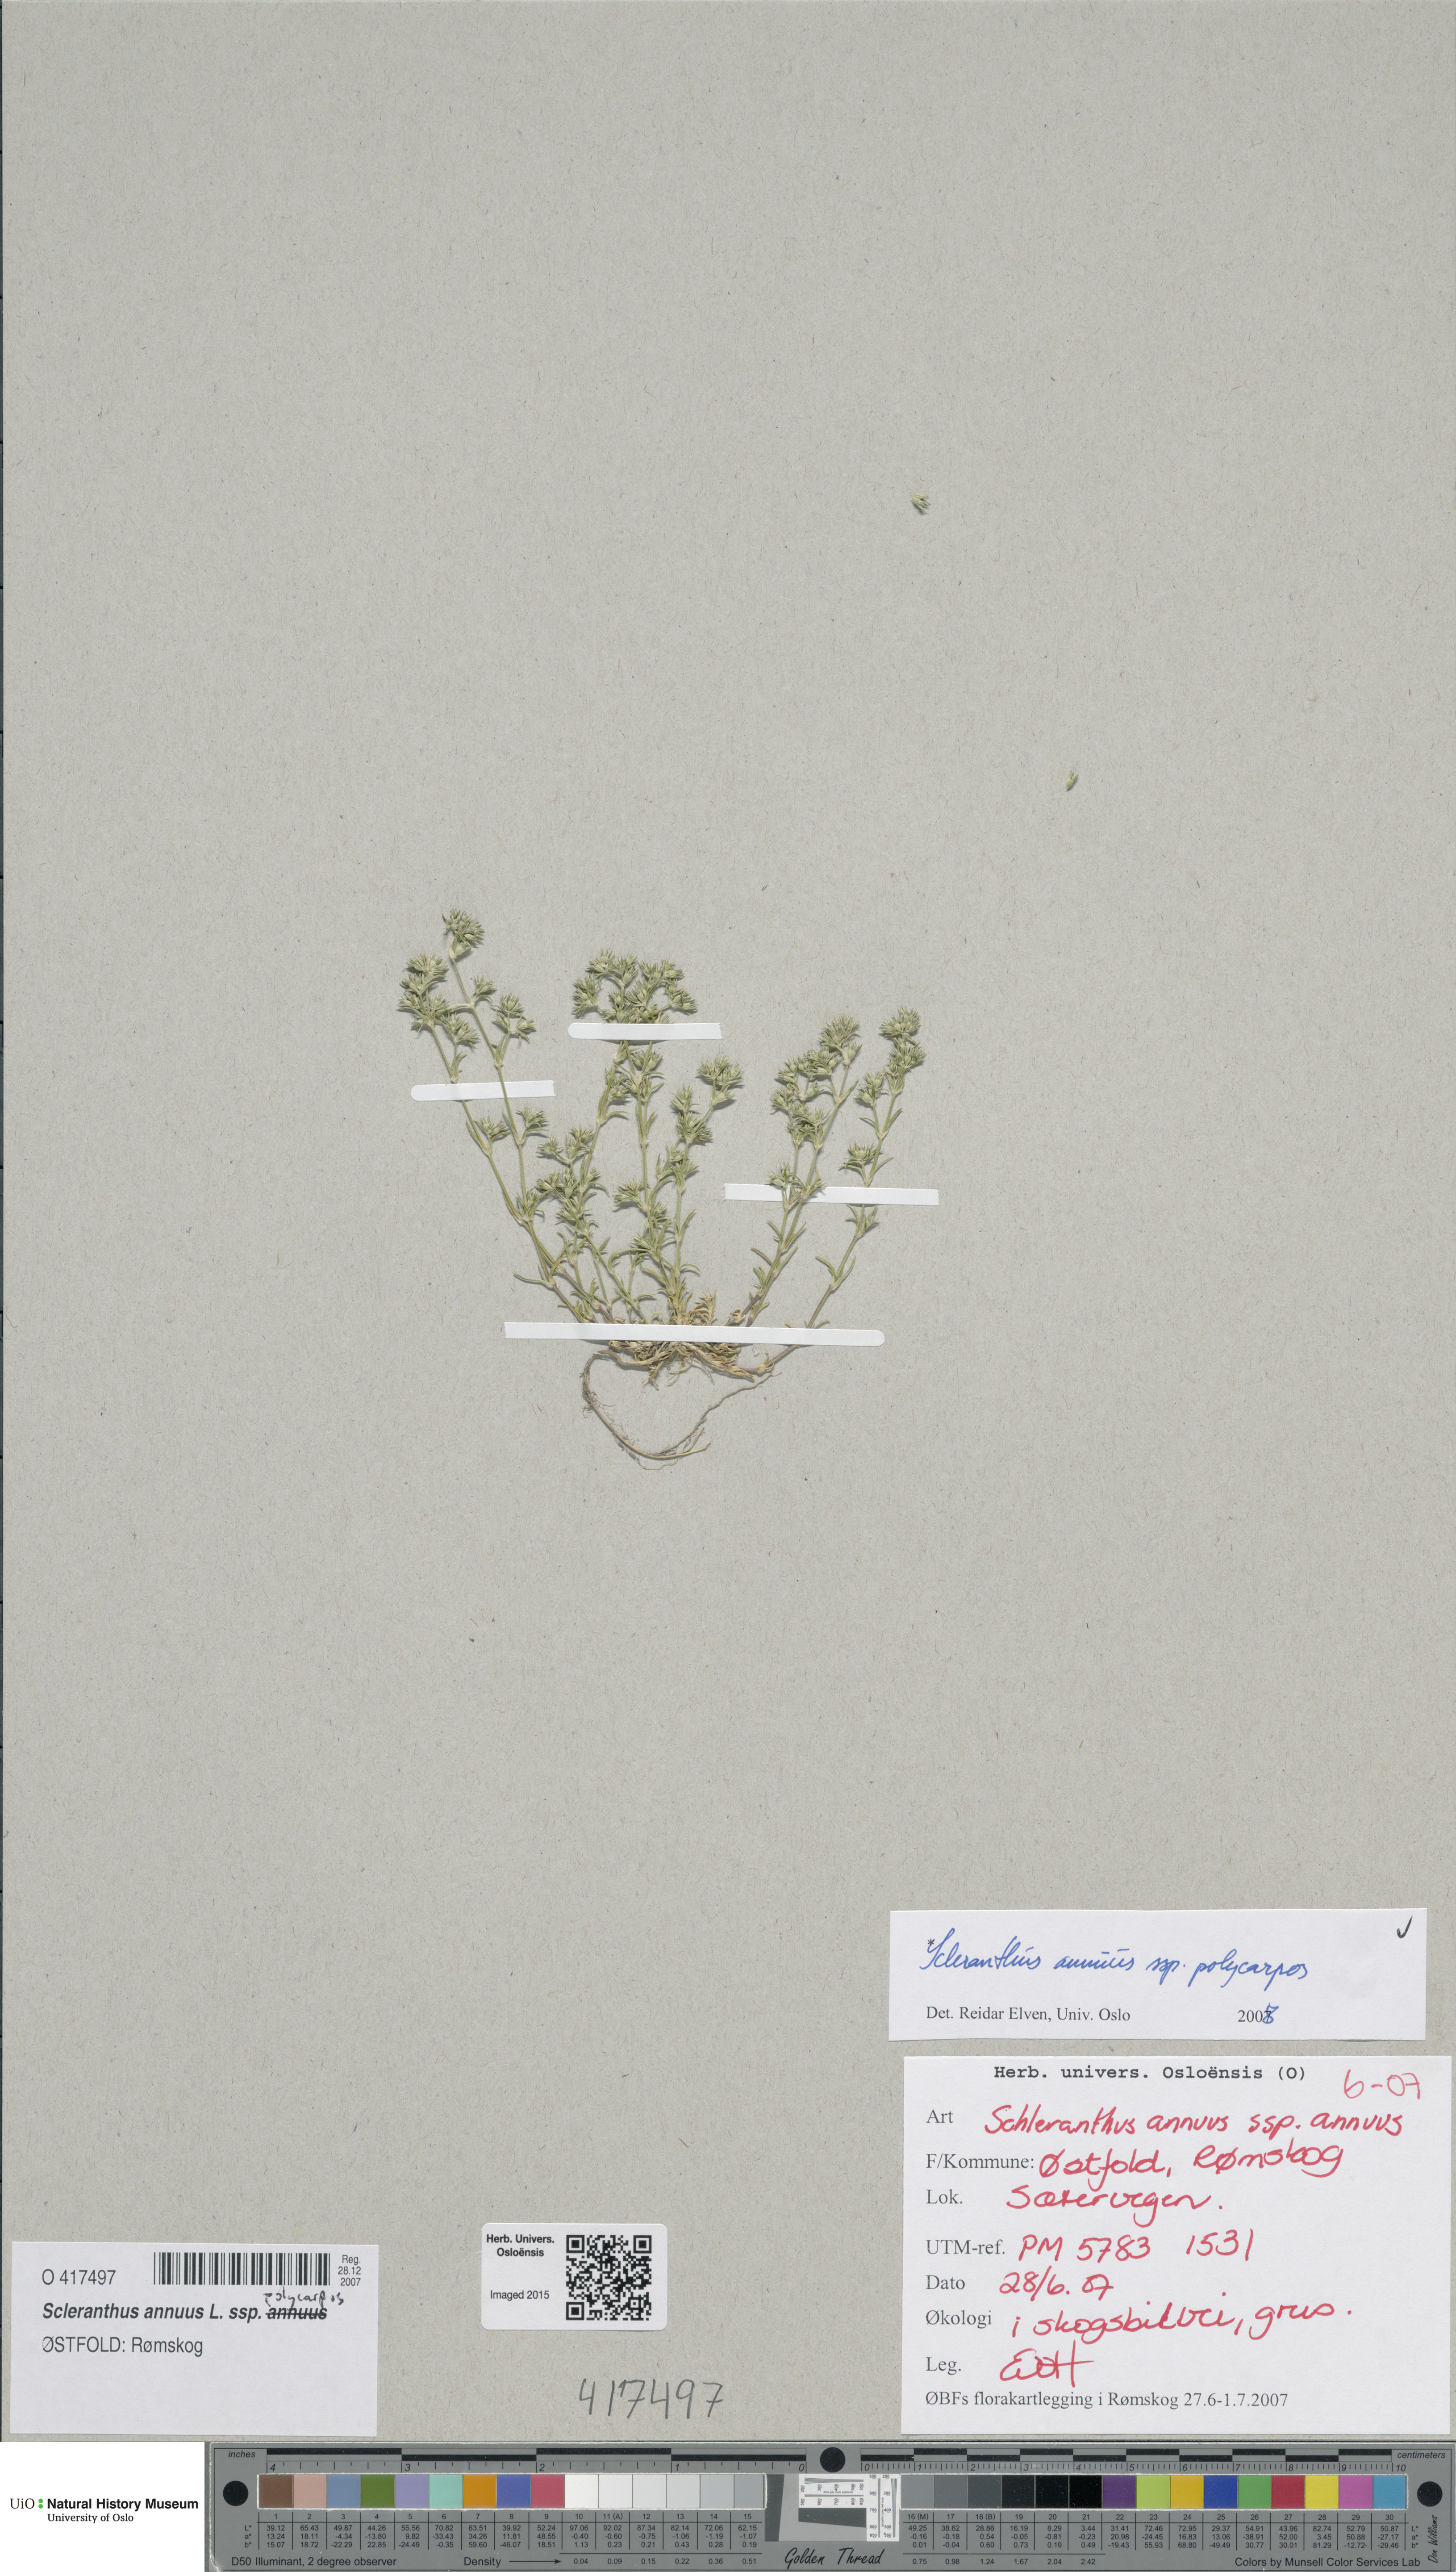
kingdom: Plantae
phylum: Tracheophyta
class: Magnoliopsida
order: Caryophyllales
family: Caryophyllaceae
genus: Scleranthus
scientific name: Scleranthus annuus
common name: Annual knawel
